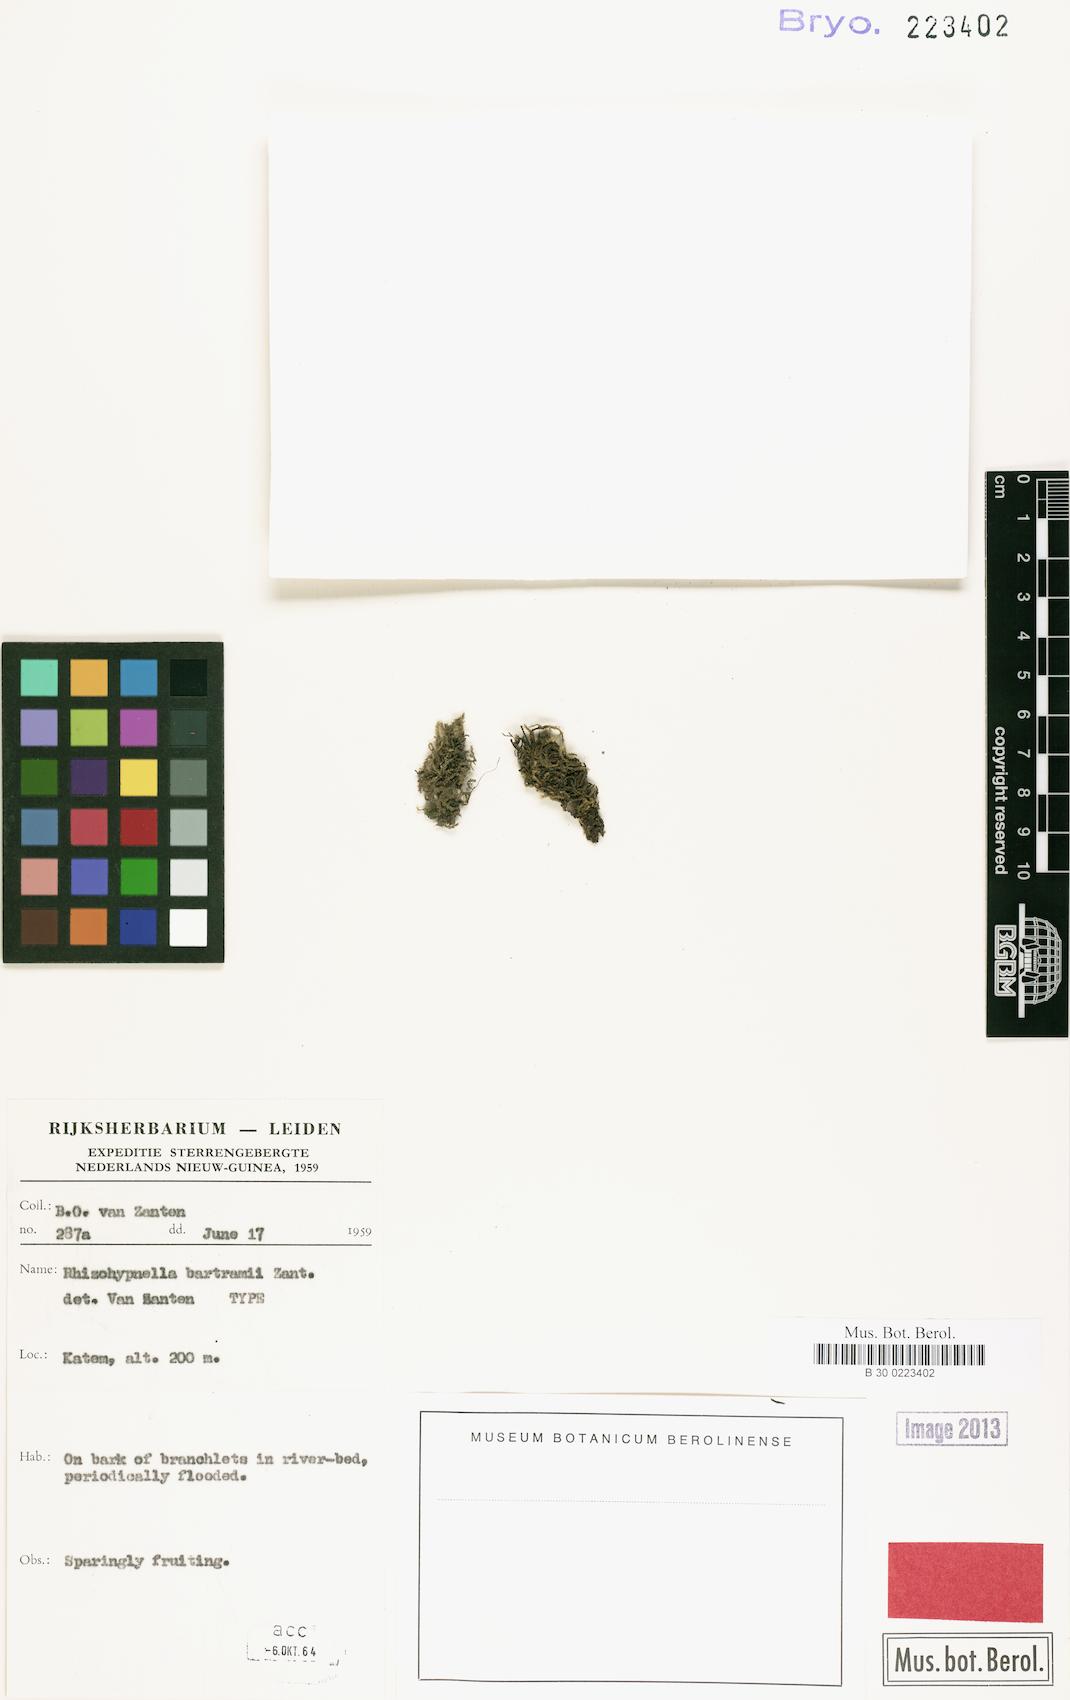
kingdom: Plantae
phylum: Bryophyta
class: Bryopsida
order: Hypnales
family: Hypnaceae
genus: Rhizohypnella
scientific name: Rhizohypnella bartramii
